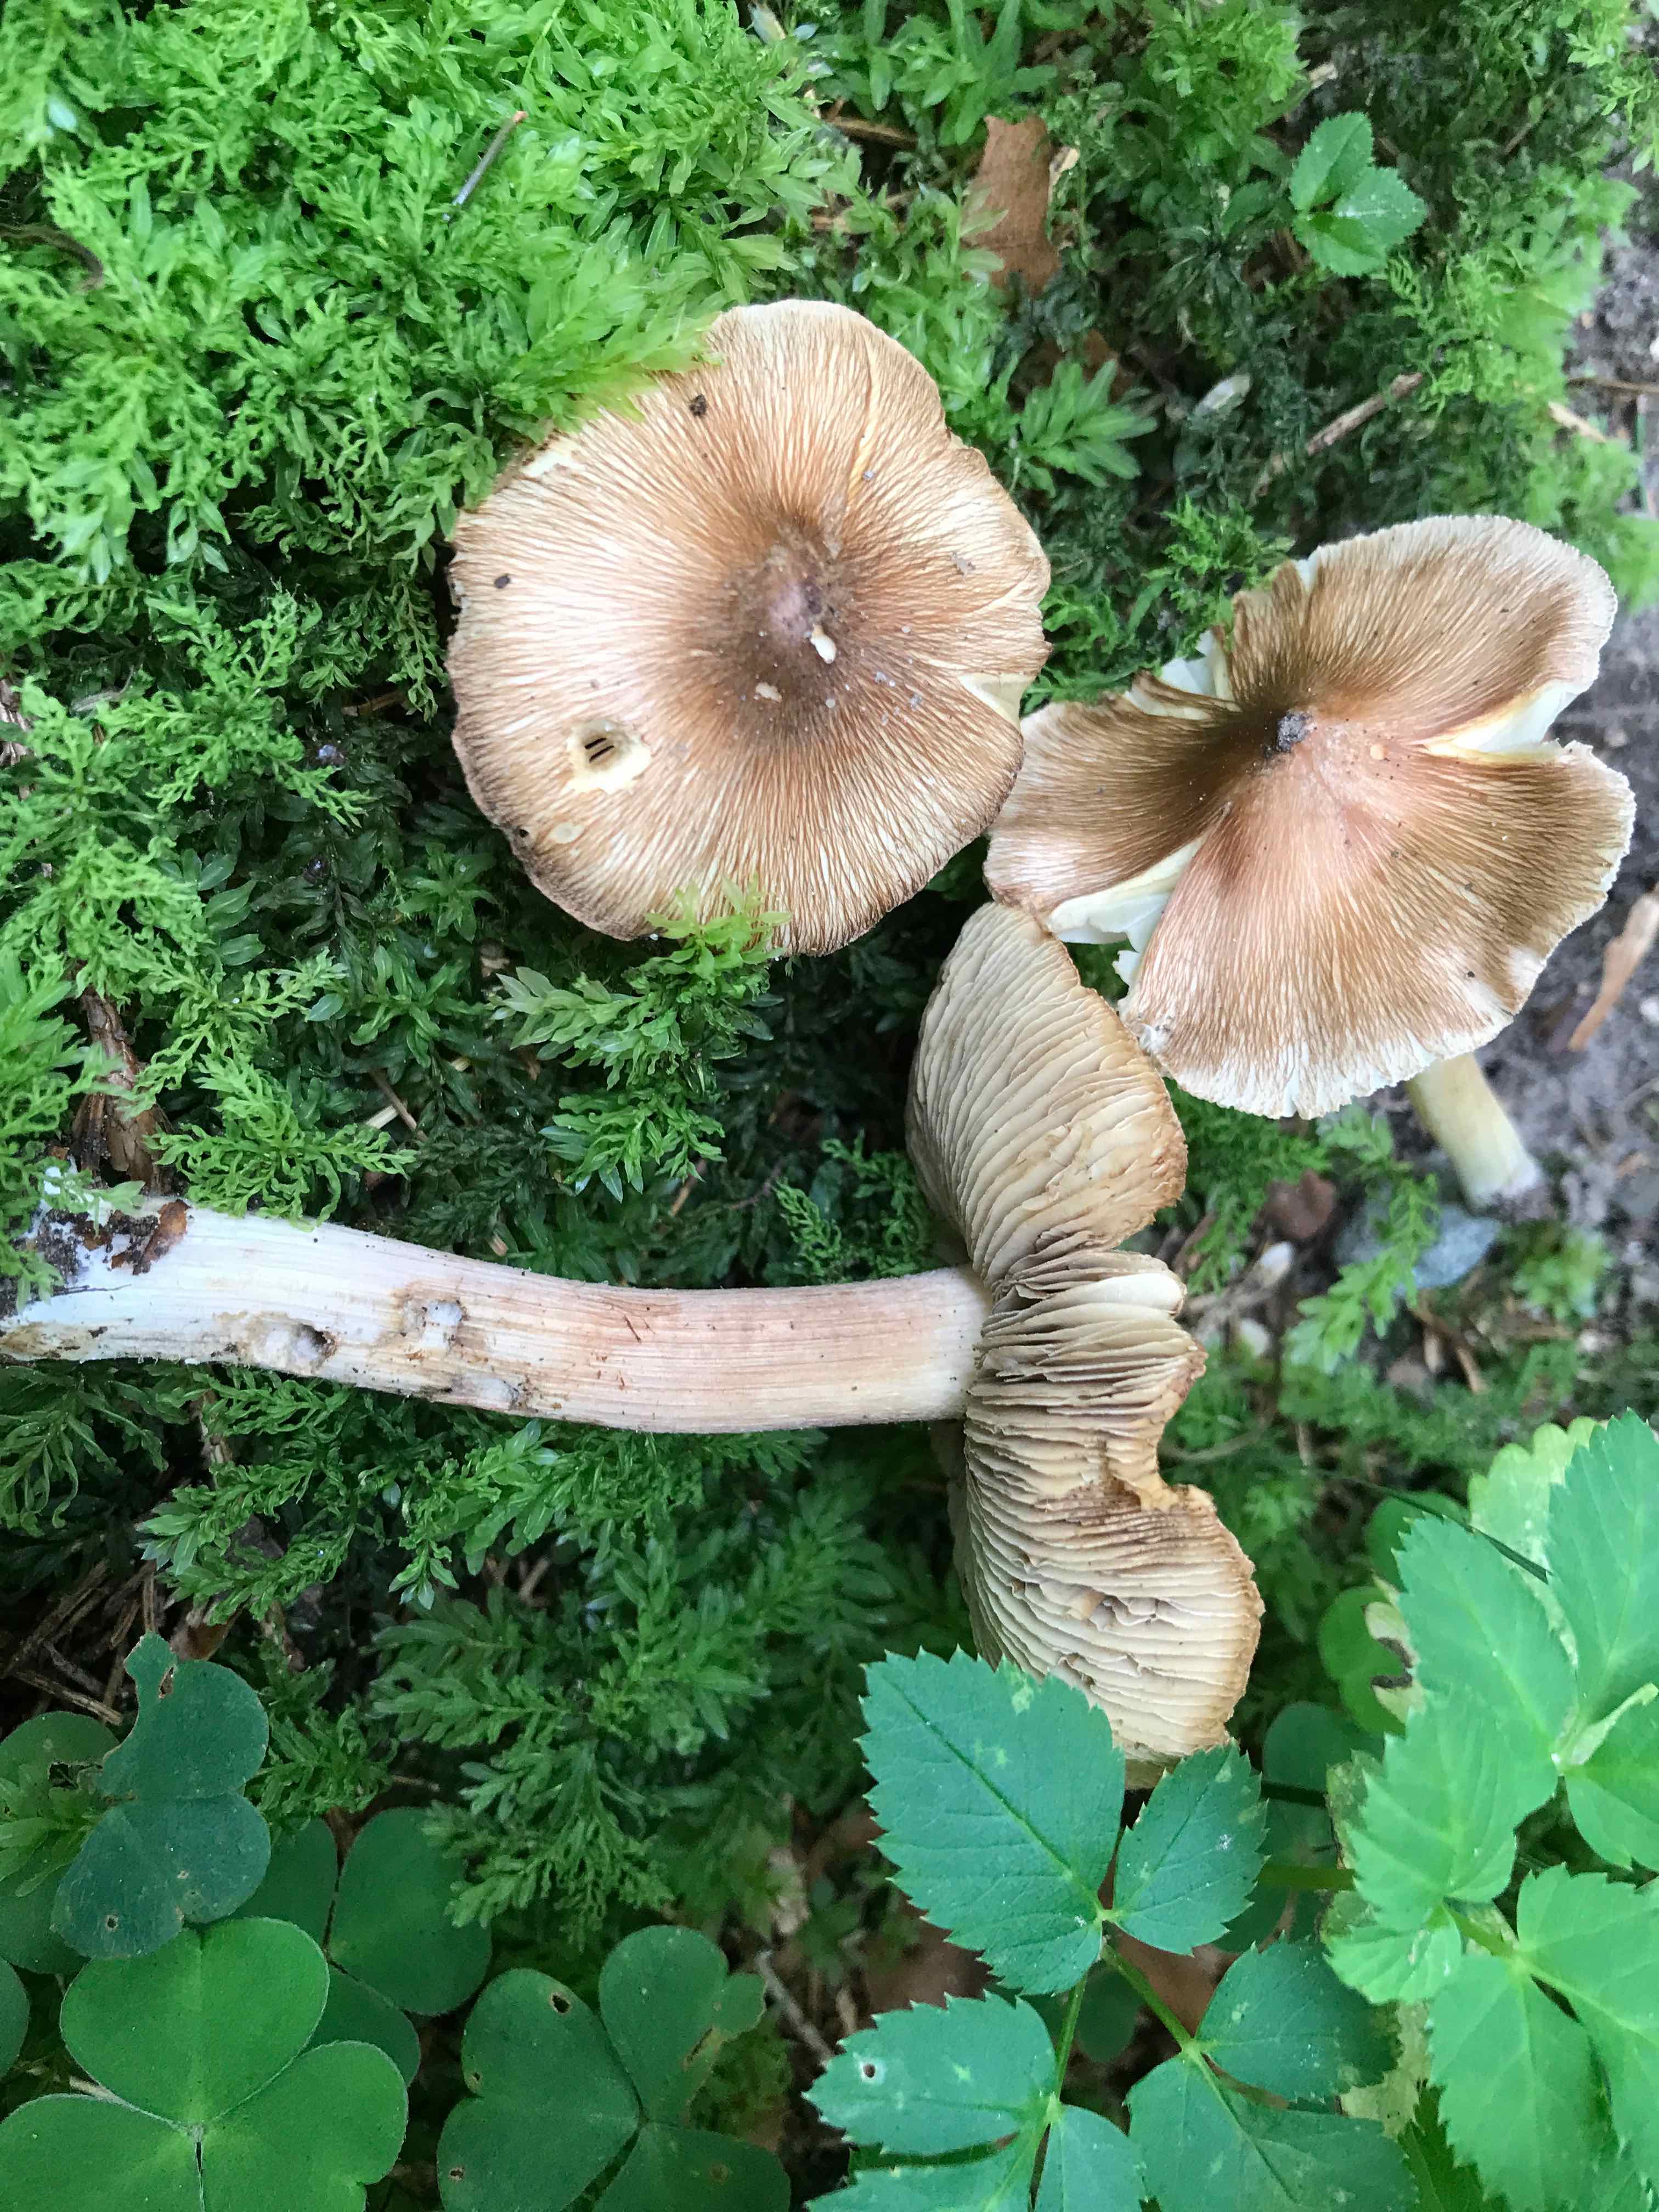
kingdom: Fungi
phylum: Basidiomycota
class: Agaricomycetes
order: Agaricales
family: Inocybaceae
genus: Inosperma
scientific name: Inosperma
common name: Trævlhat
